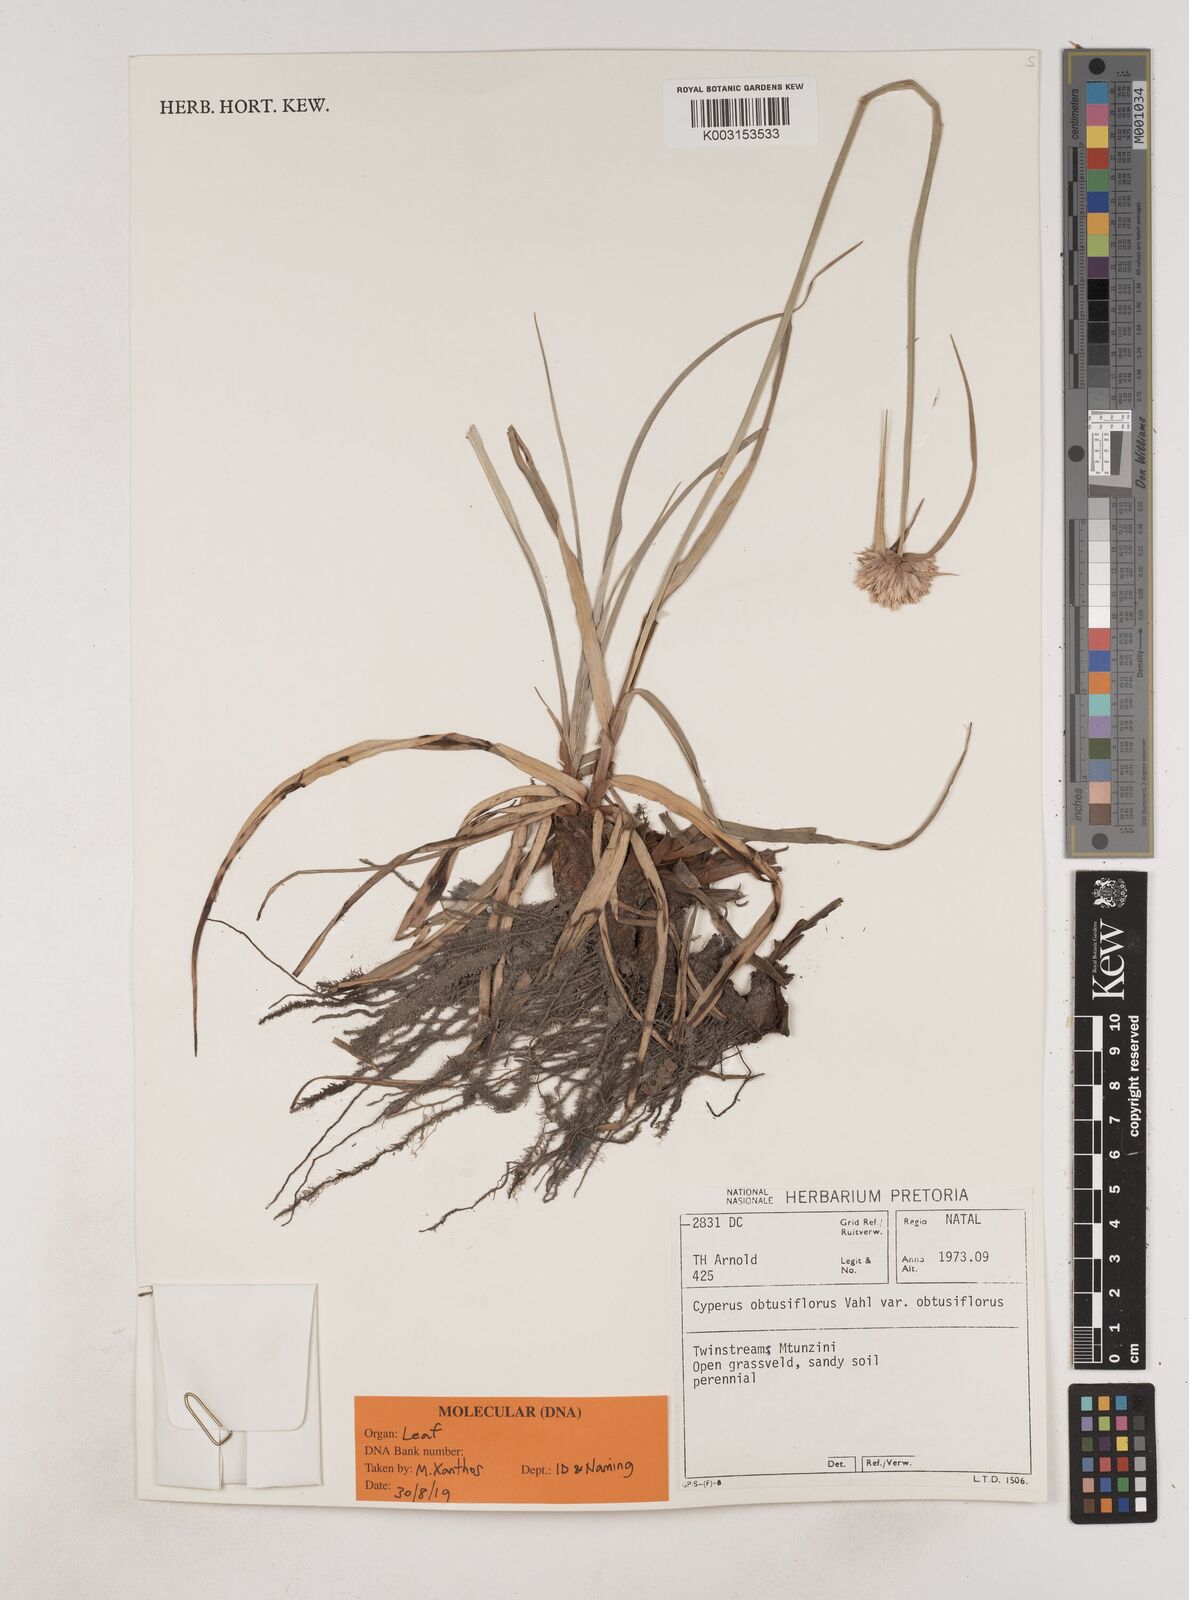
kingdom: Plantae
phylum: Tracheophyta
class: Liliopsida
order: Poales
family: Cyperaceae
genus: Cyperus
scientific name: Cyperus niveus
